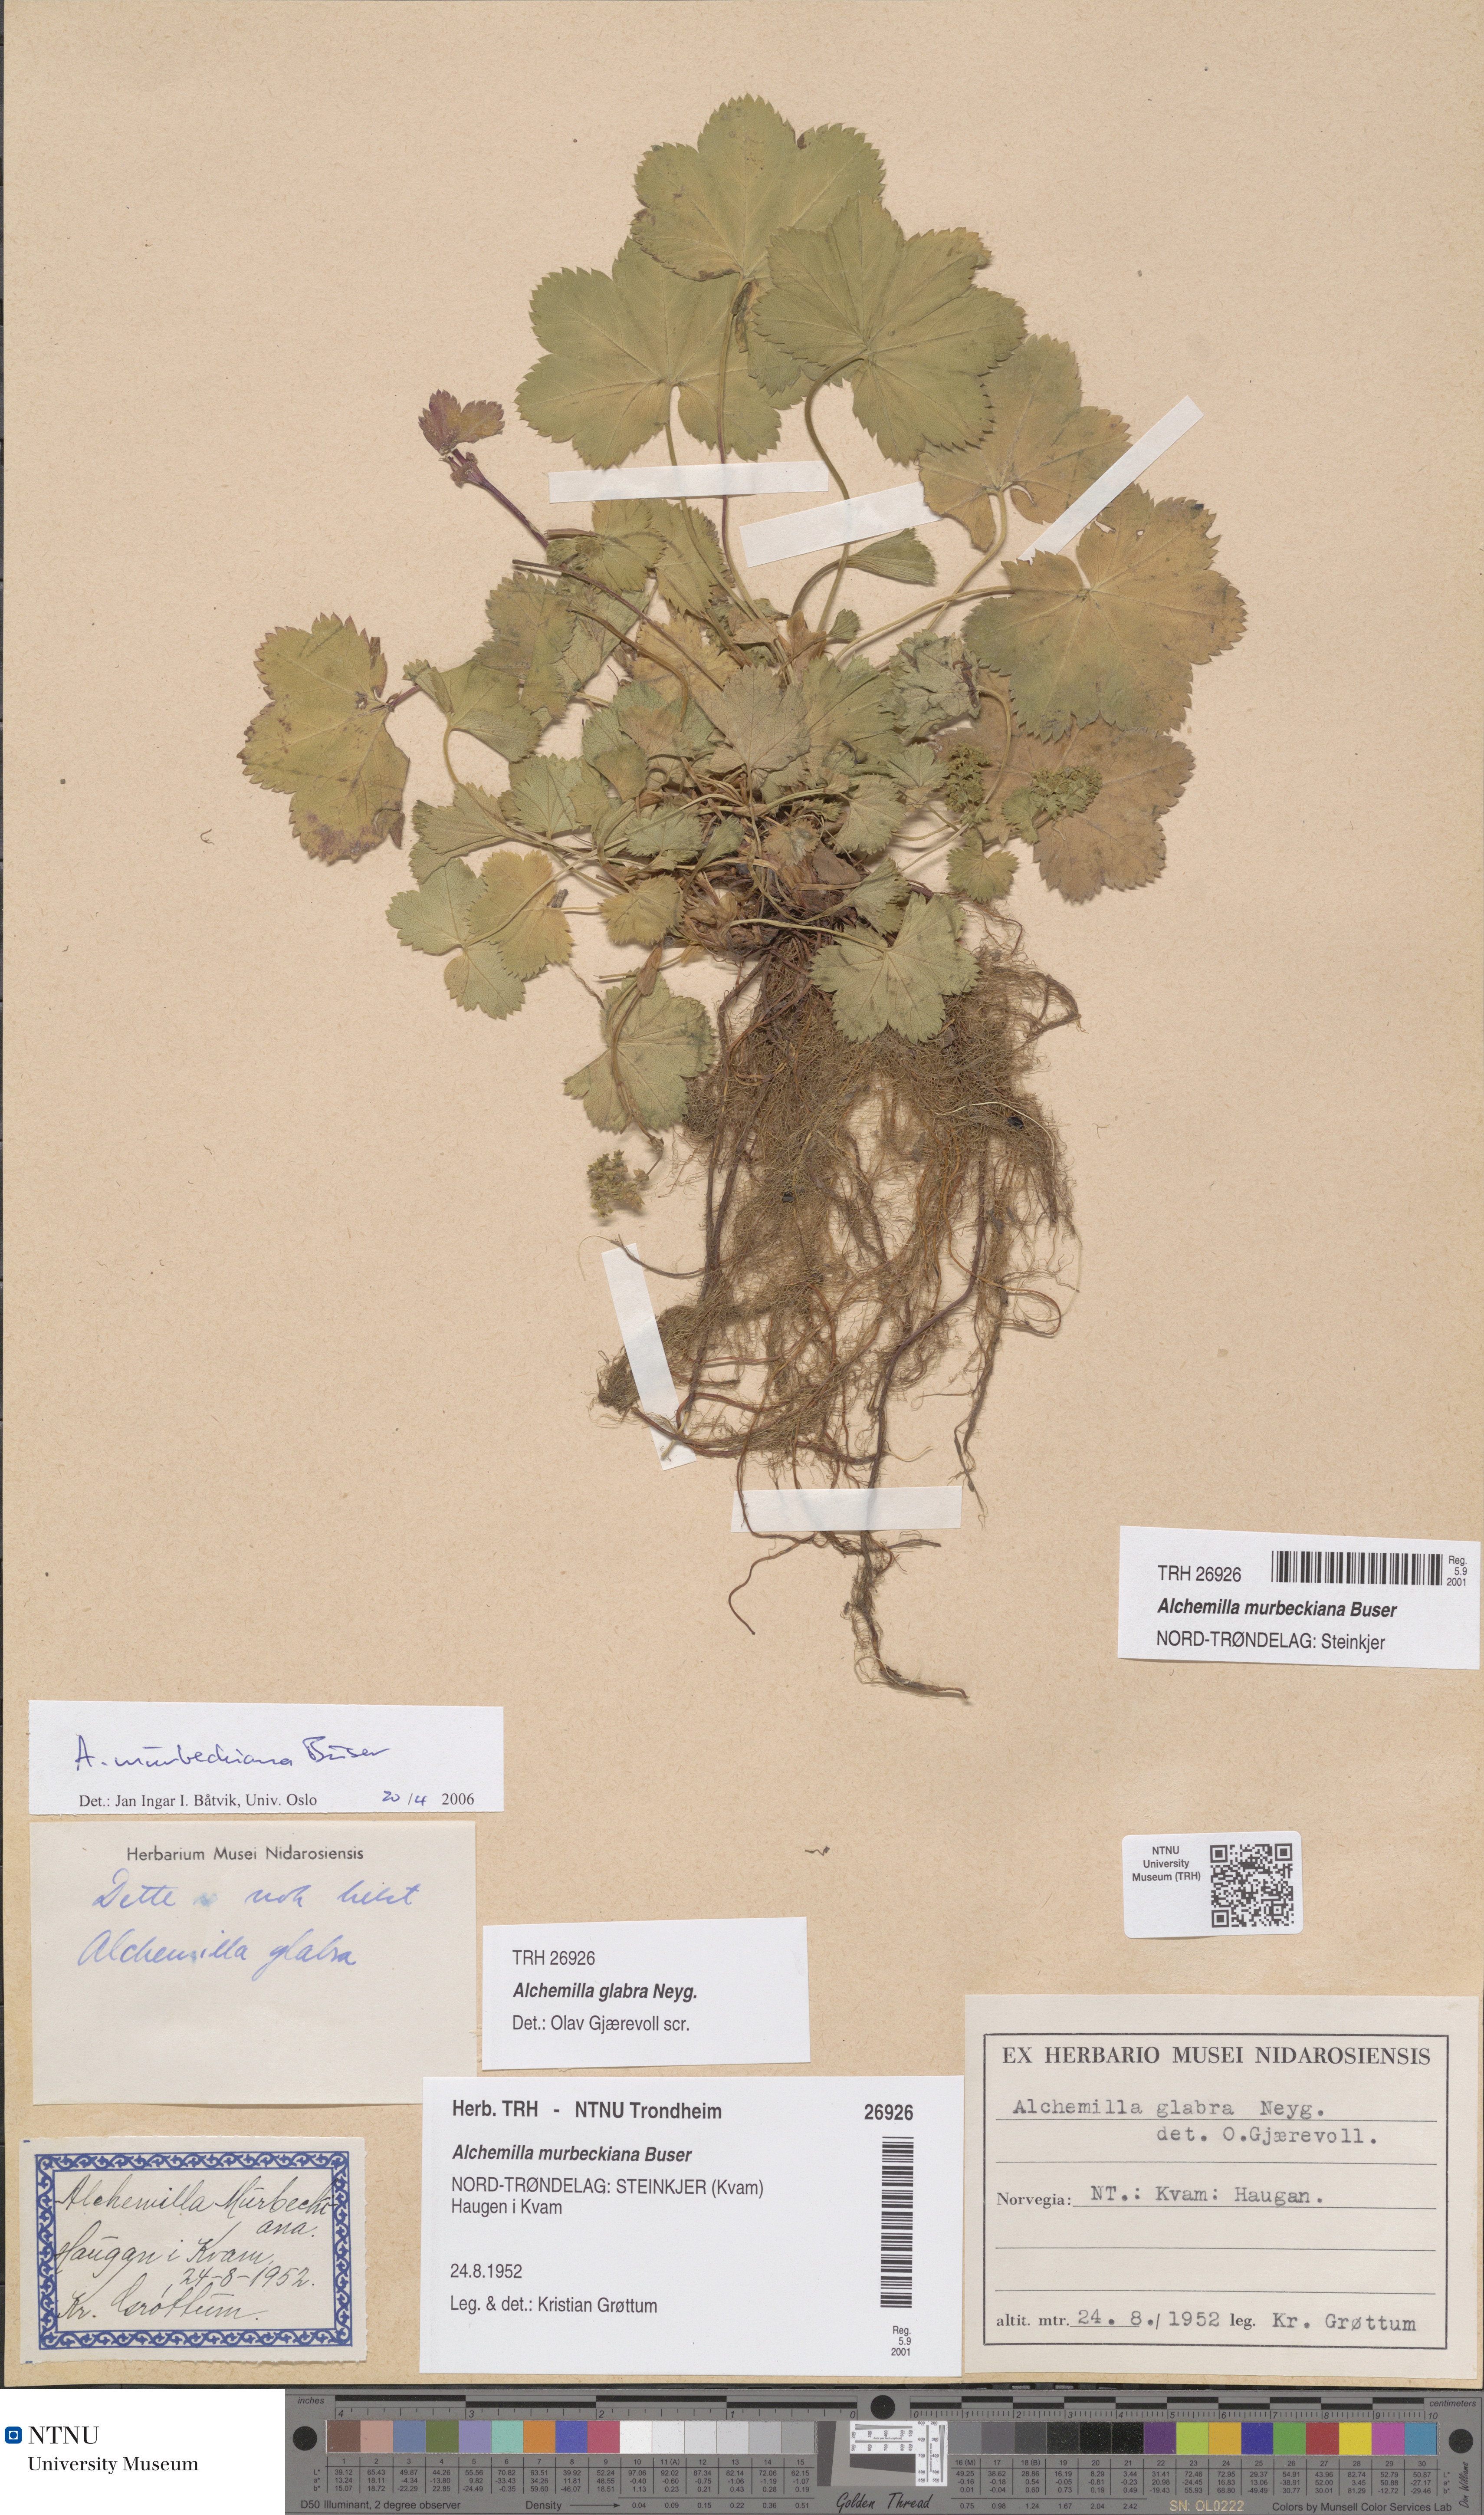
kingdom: Plantae
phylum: Tracheophyta
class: Magnoliopsida
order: Rosales
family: Rosaceae
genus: Alchemilla
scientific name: Alchemilla murbeckiana
